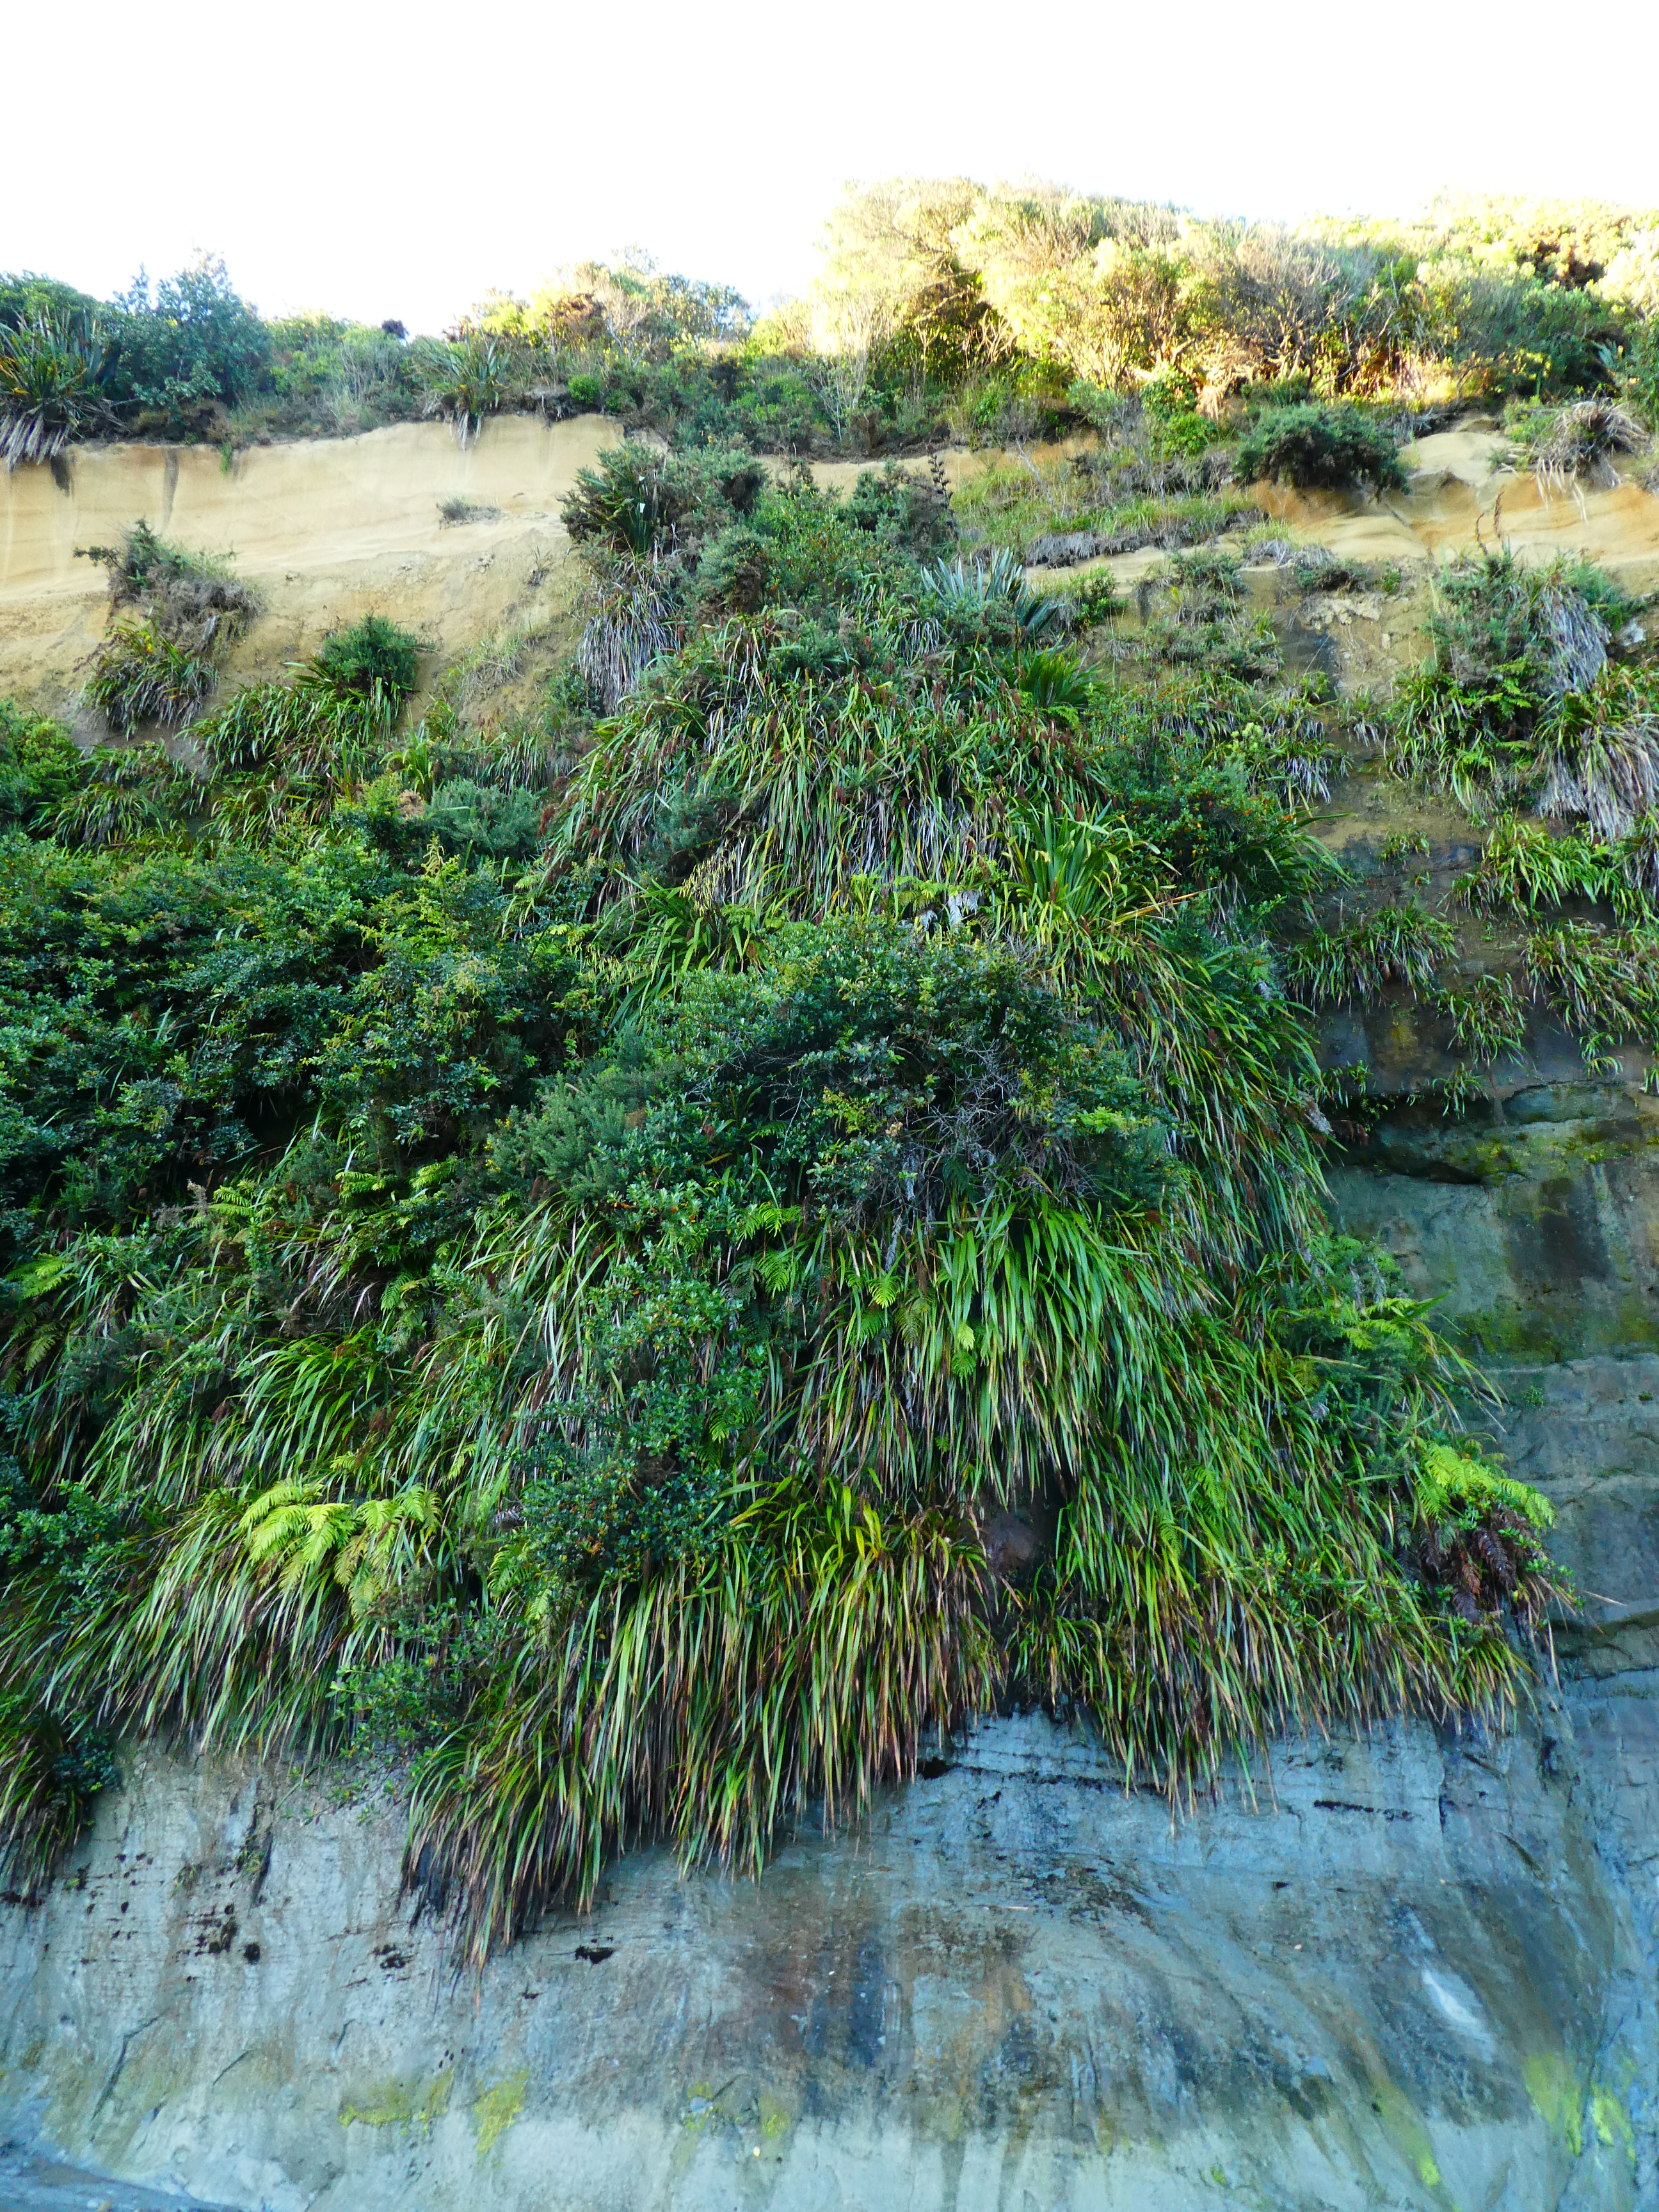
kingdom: Plantae
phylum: Tracheophyta
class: Liliopsida
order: Poales
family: Cyperaceae
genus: Machaerina
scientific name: Machaerina sinclairii
